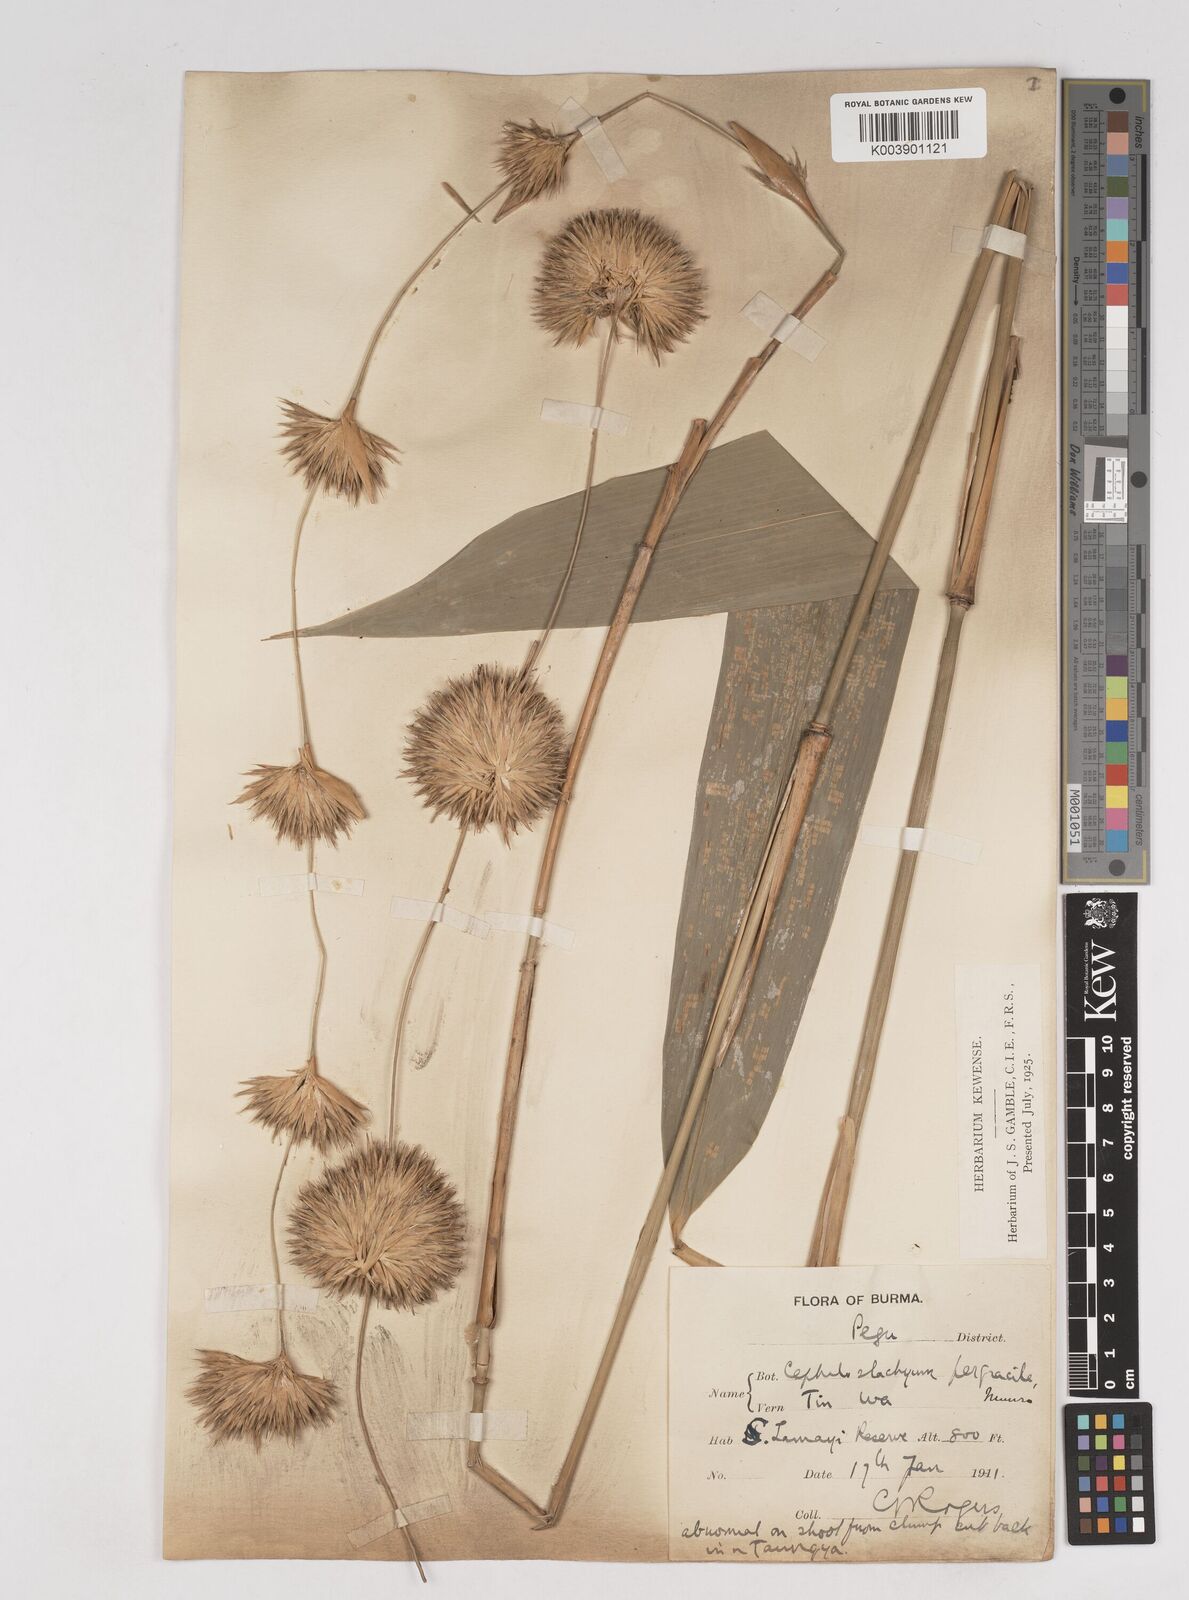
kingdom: Plantae
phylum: Tracheophyta
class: Liliopsida
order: Poales
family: Poaceae
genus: Schizostachyum
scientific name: Schizostachyum pergracile
